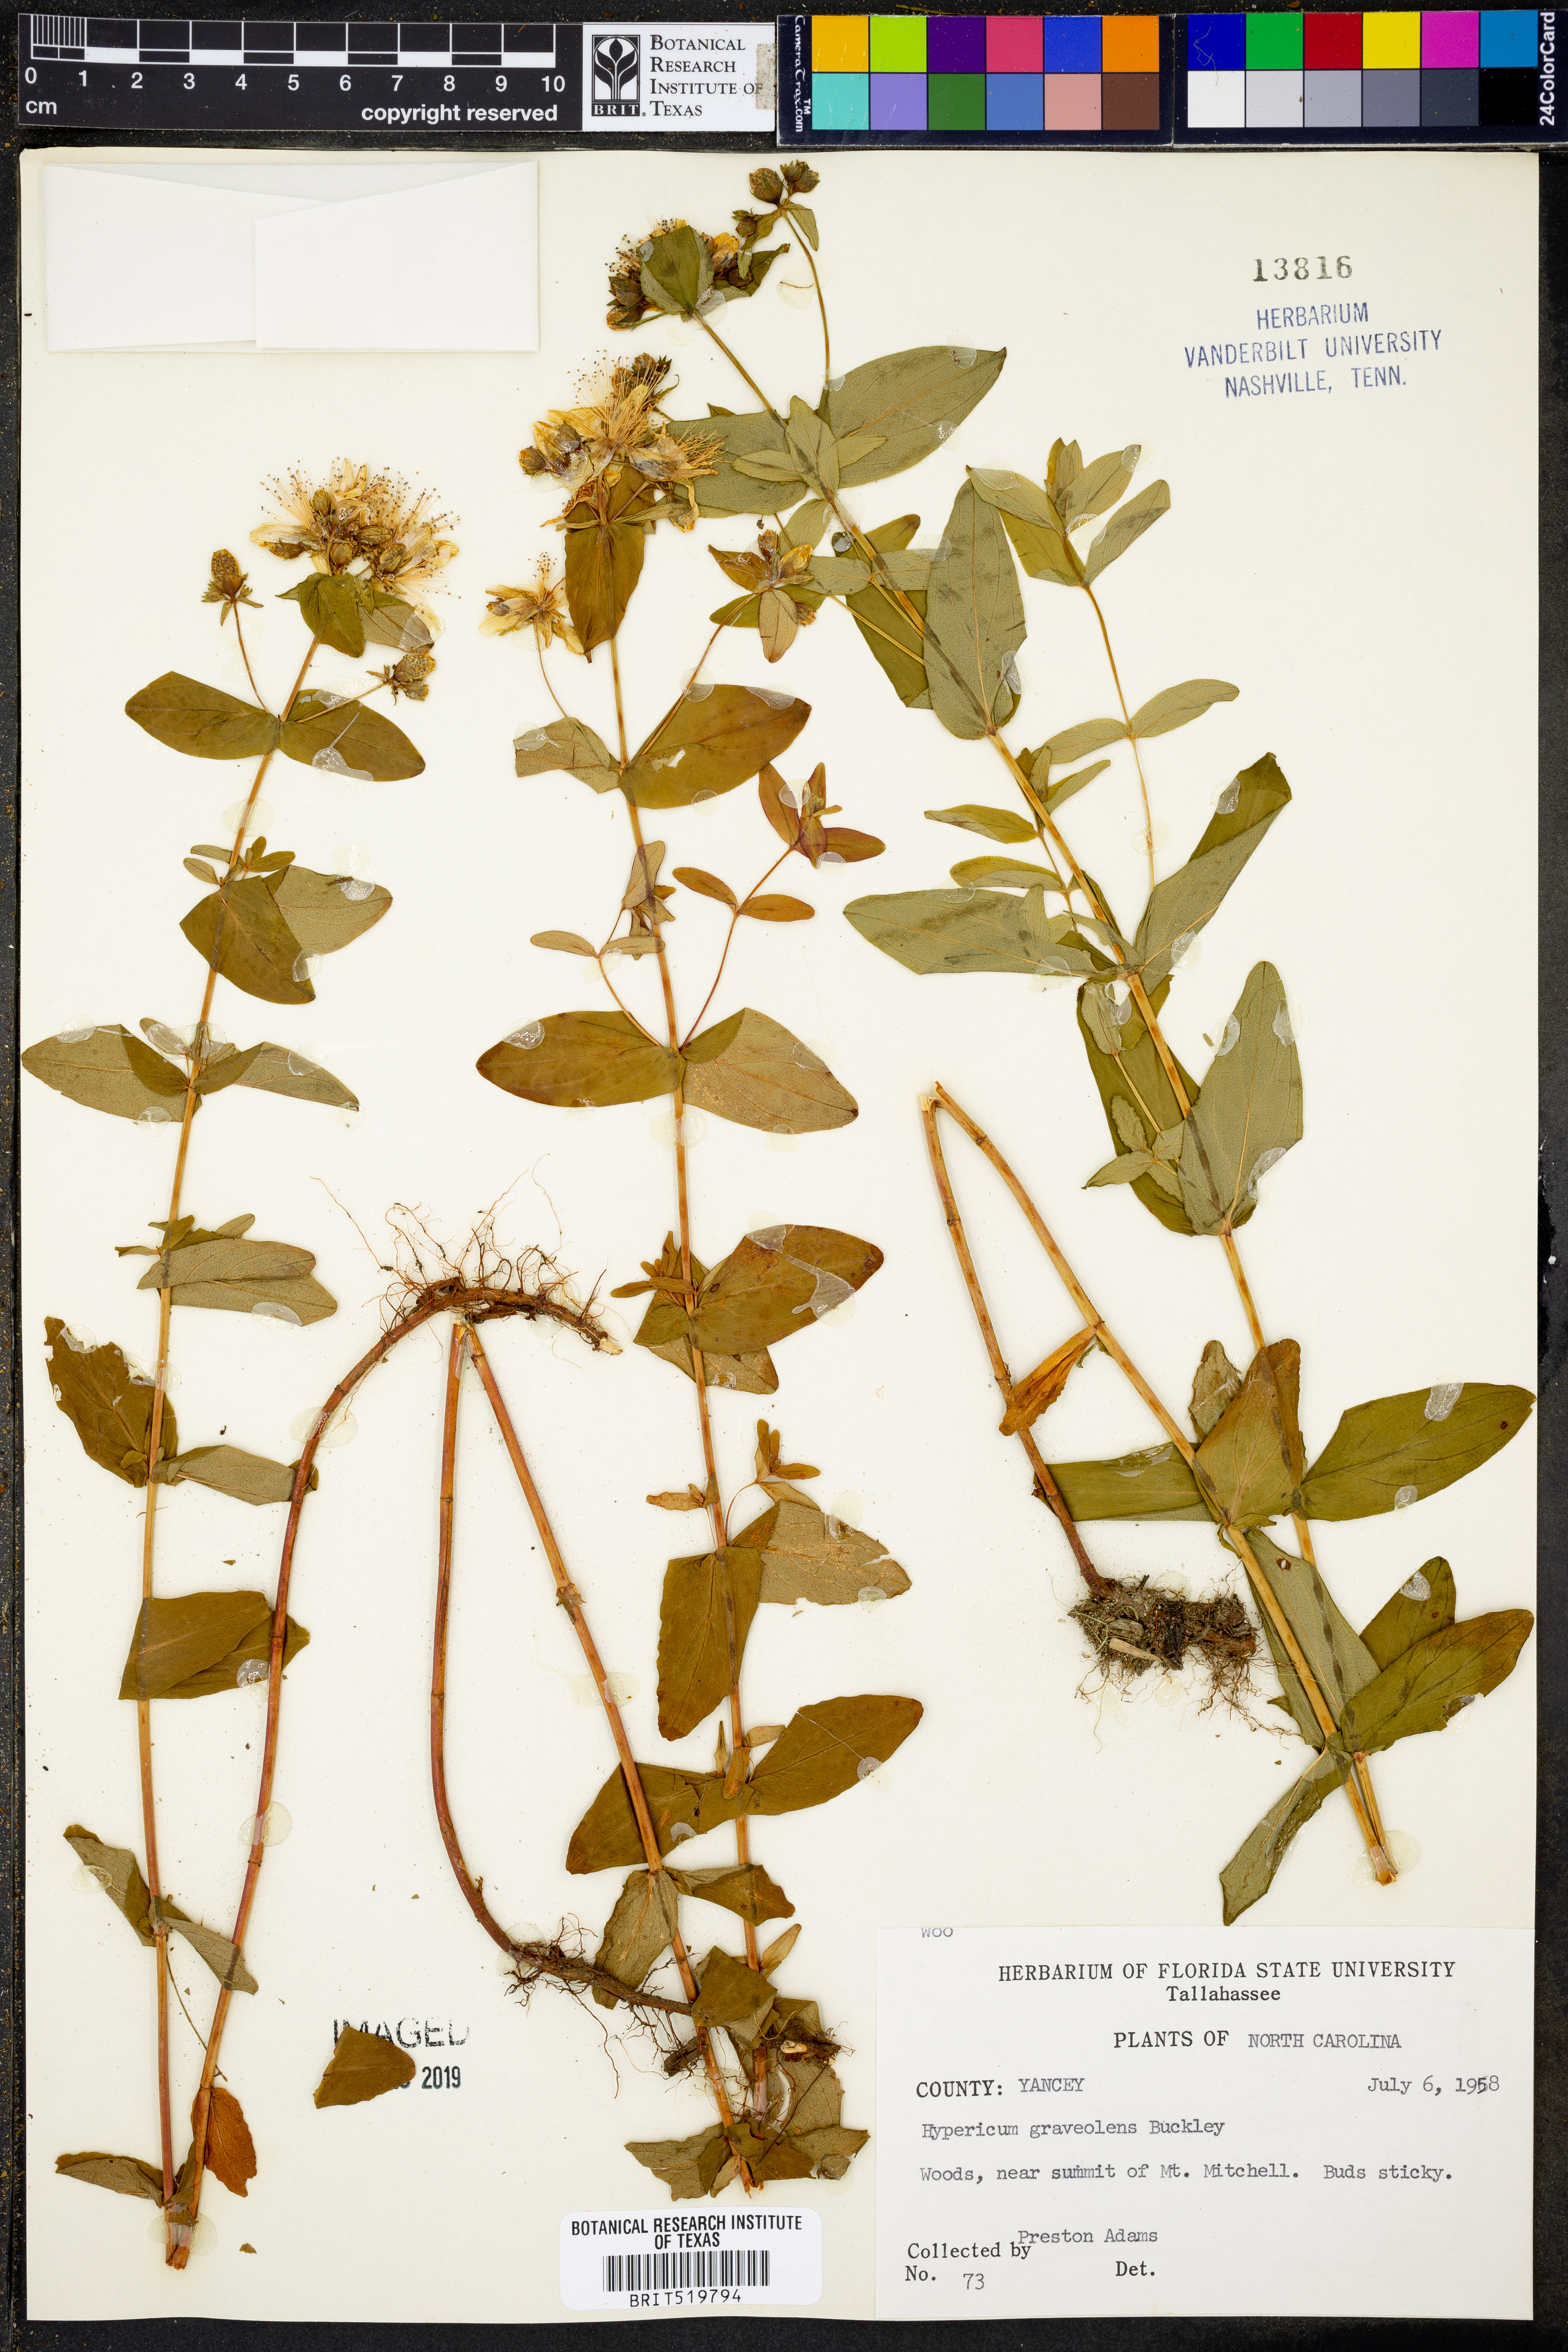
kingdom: Plantae
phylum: Tracheophyta
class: Magnoliopsida
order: Malpighiales
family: Hypericaceae
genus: Hypericum
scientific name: Hypericum graveolens
